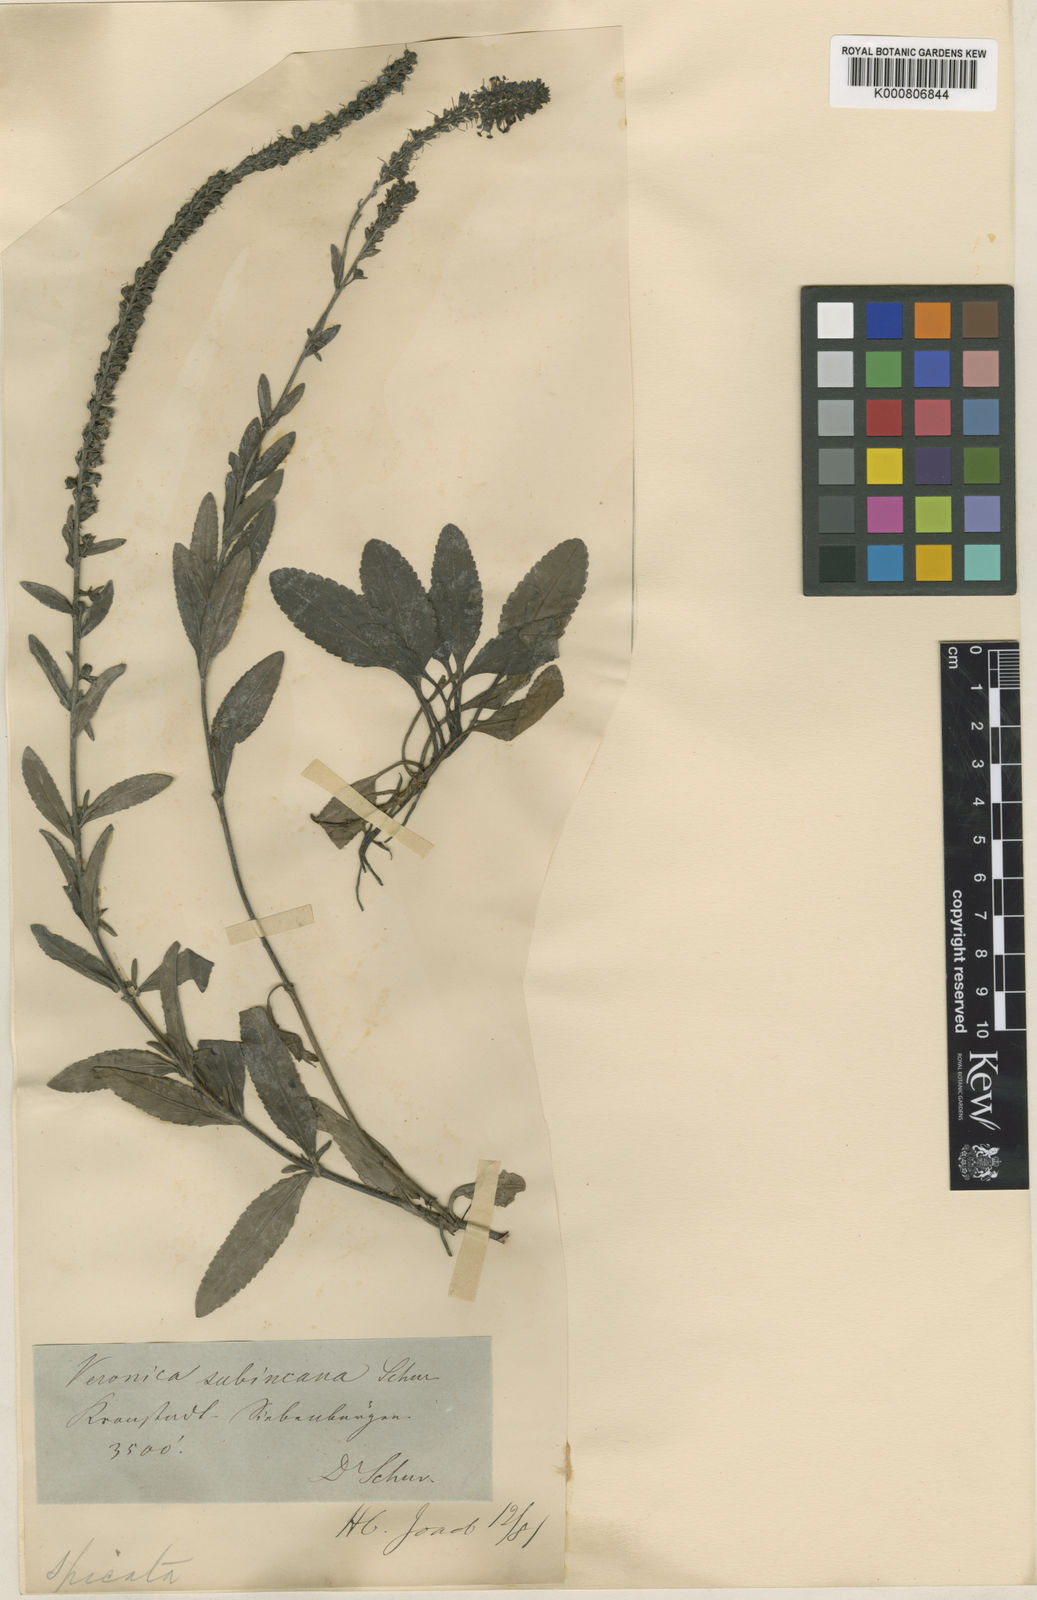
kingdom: Plantae
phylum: Tracheophyta
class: Magnoliopsida
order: Lamiales
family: Plantaginaceae
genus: Veronica
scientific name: Veronica spicata
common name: Spiked speedwell
